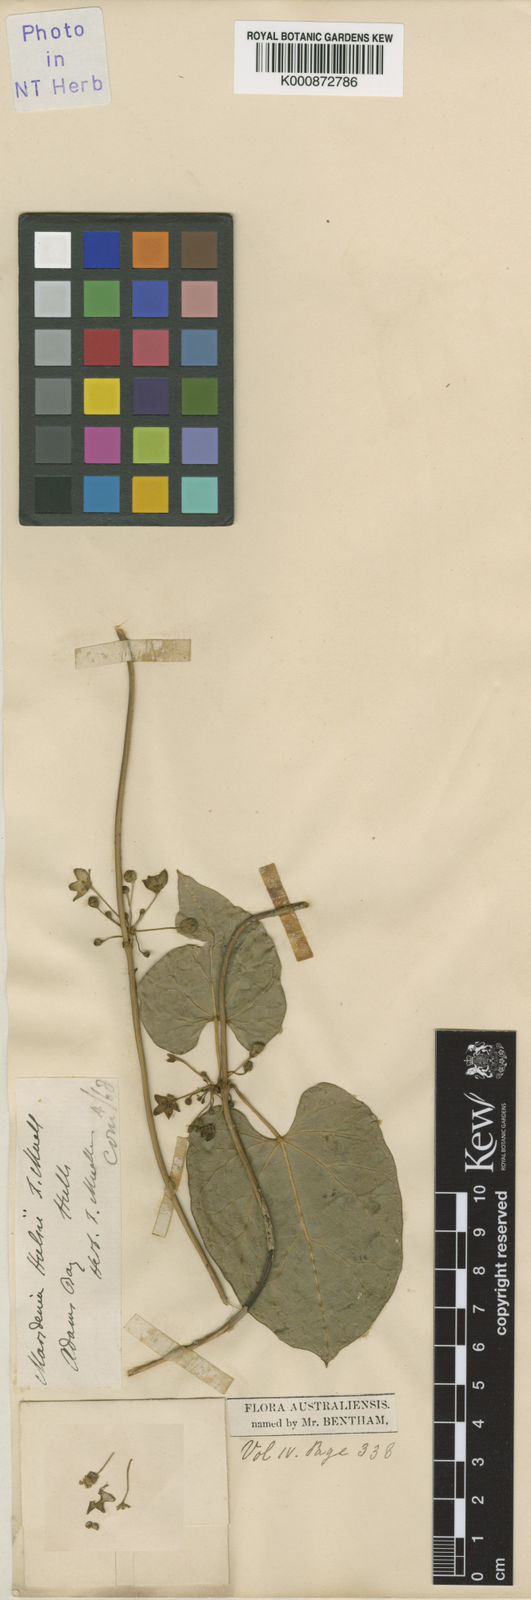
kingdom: Plantae
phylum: Tracheophyta
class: Magnoliopsida
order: Gentianales
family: Apocynaceae
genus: Sarcolobus
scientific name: Sarcolobus hullsii
